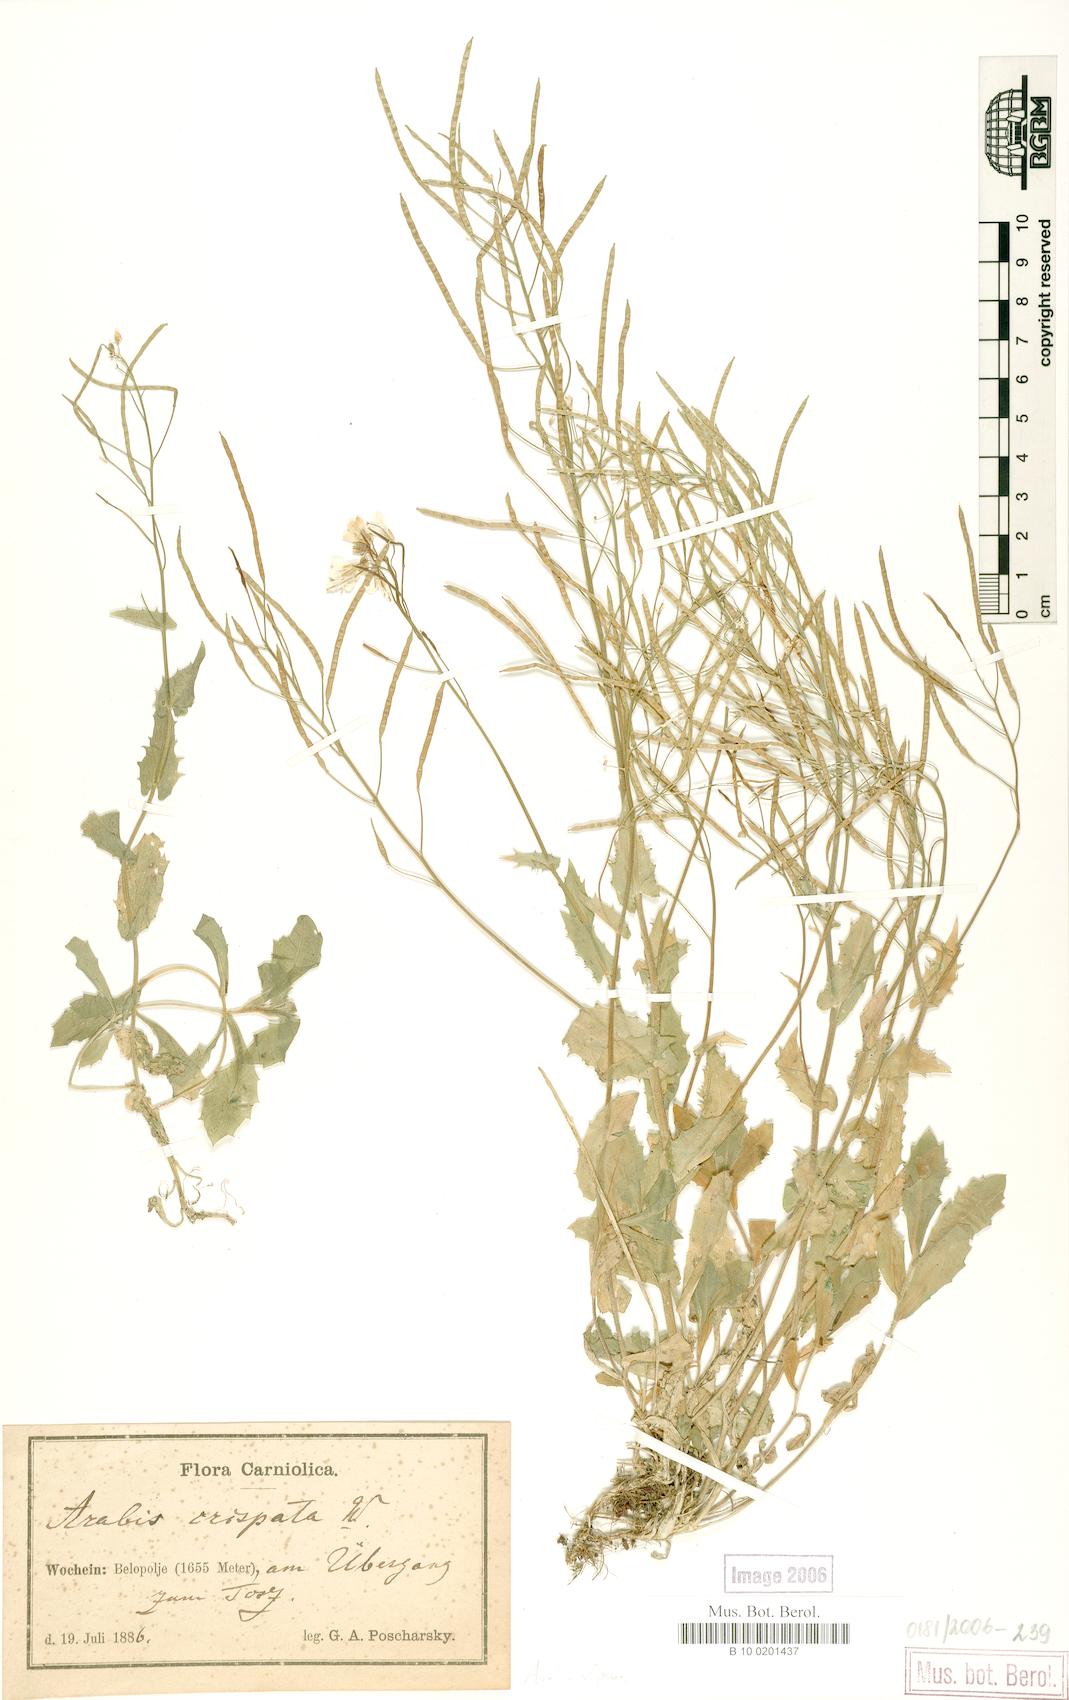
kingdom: Plantae
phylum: Tracheophyta
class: Magnoliopsida
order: Brassicales
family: Brassicaceae
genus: Arabis
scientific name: Arabis alpina
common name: Alpine rock-cress
